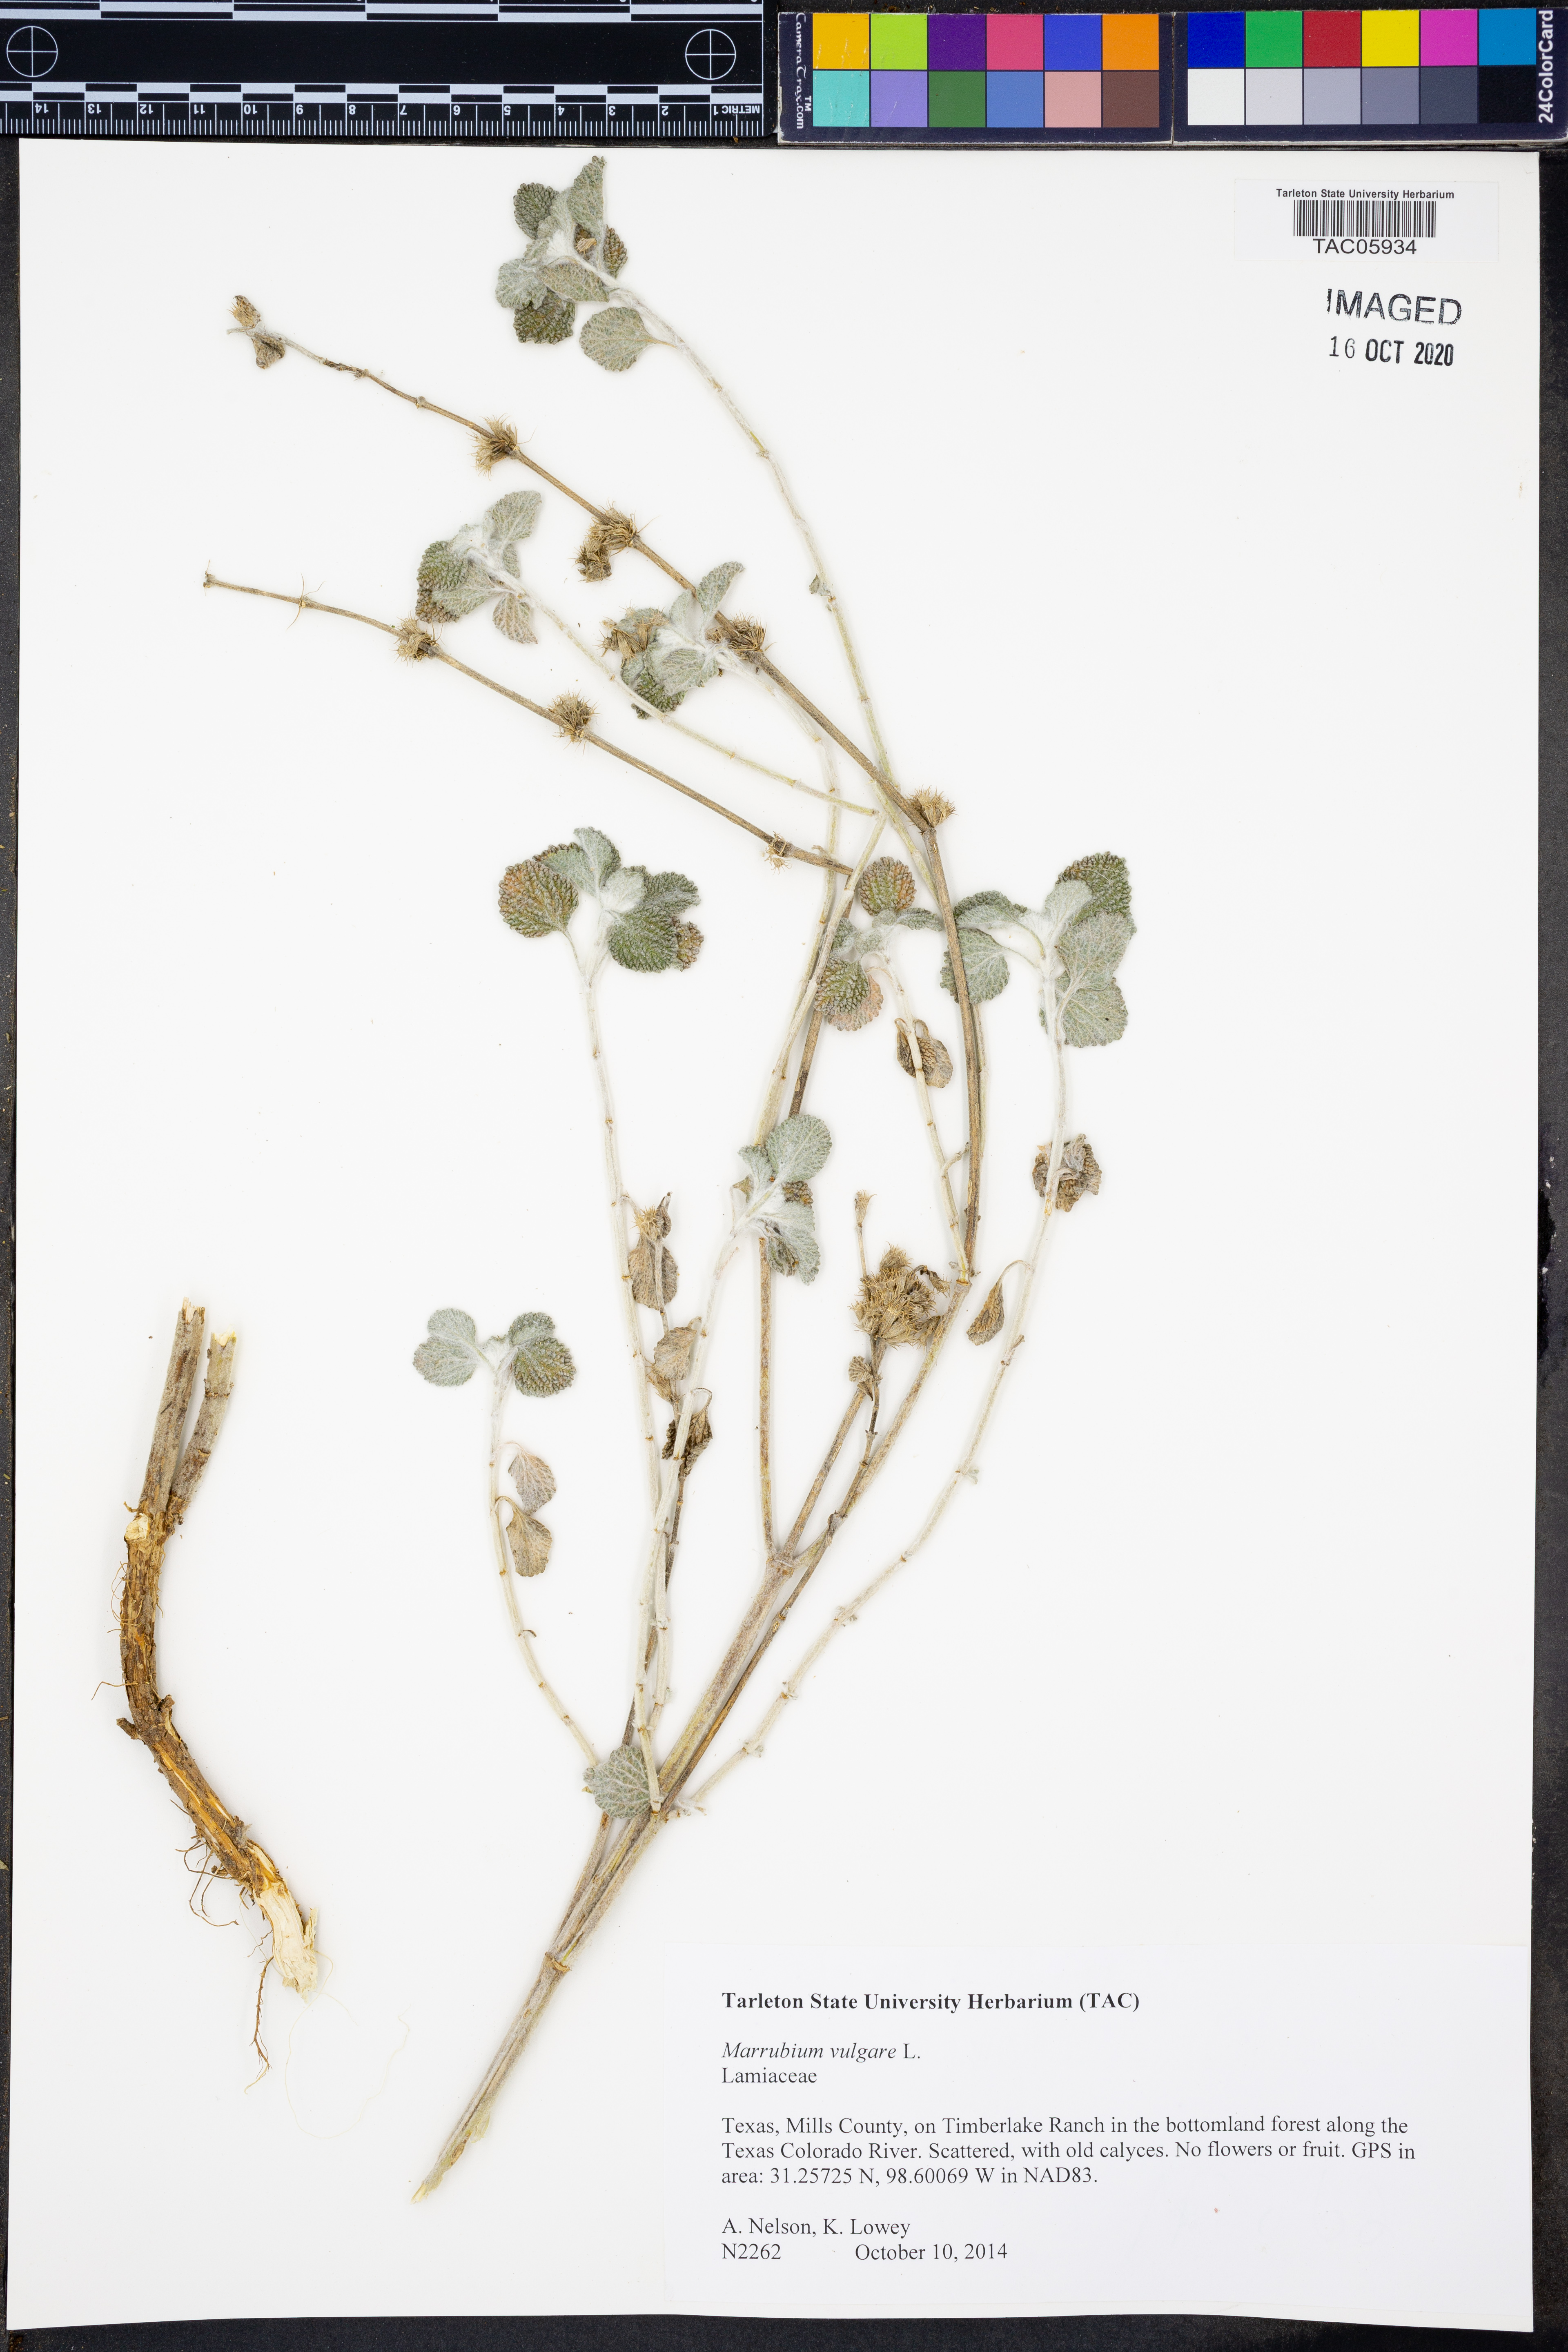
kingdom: Plantae
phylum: Tracheophyta
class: Magnoliopsida
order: Lamiales
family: Lamiaceae
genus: Marrubium
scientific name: Marrubium vulgare
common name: Horehound
